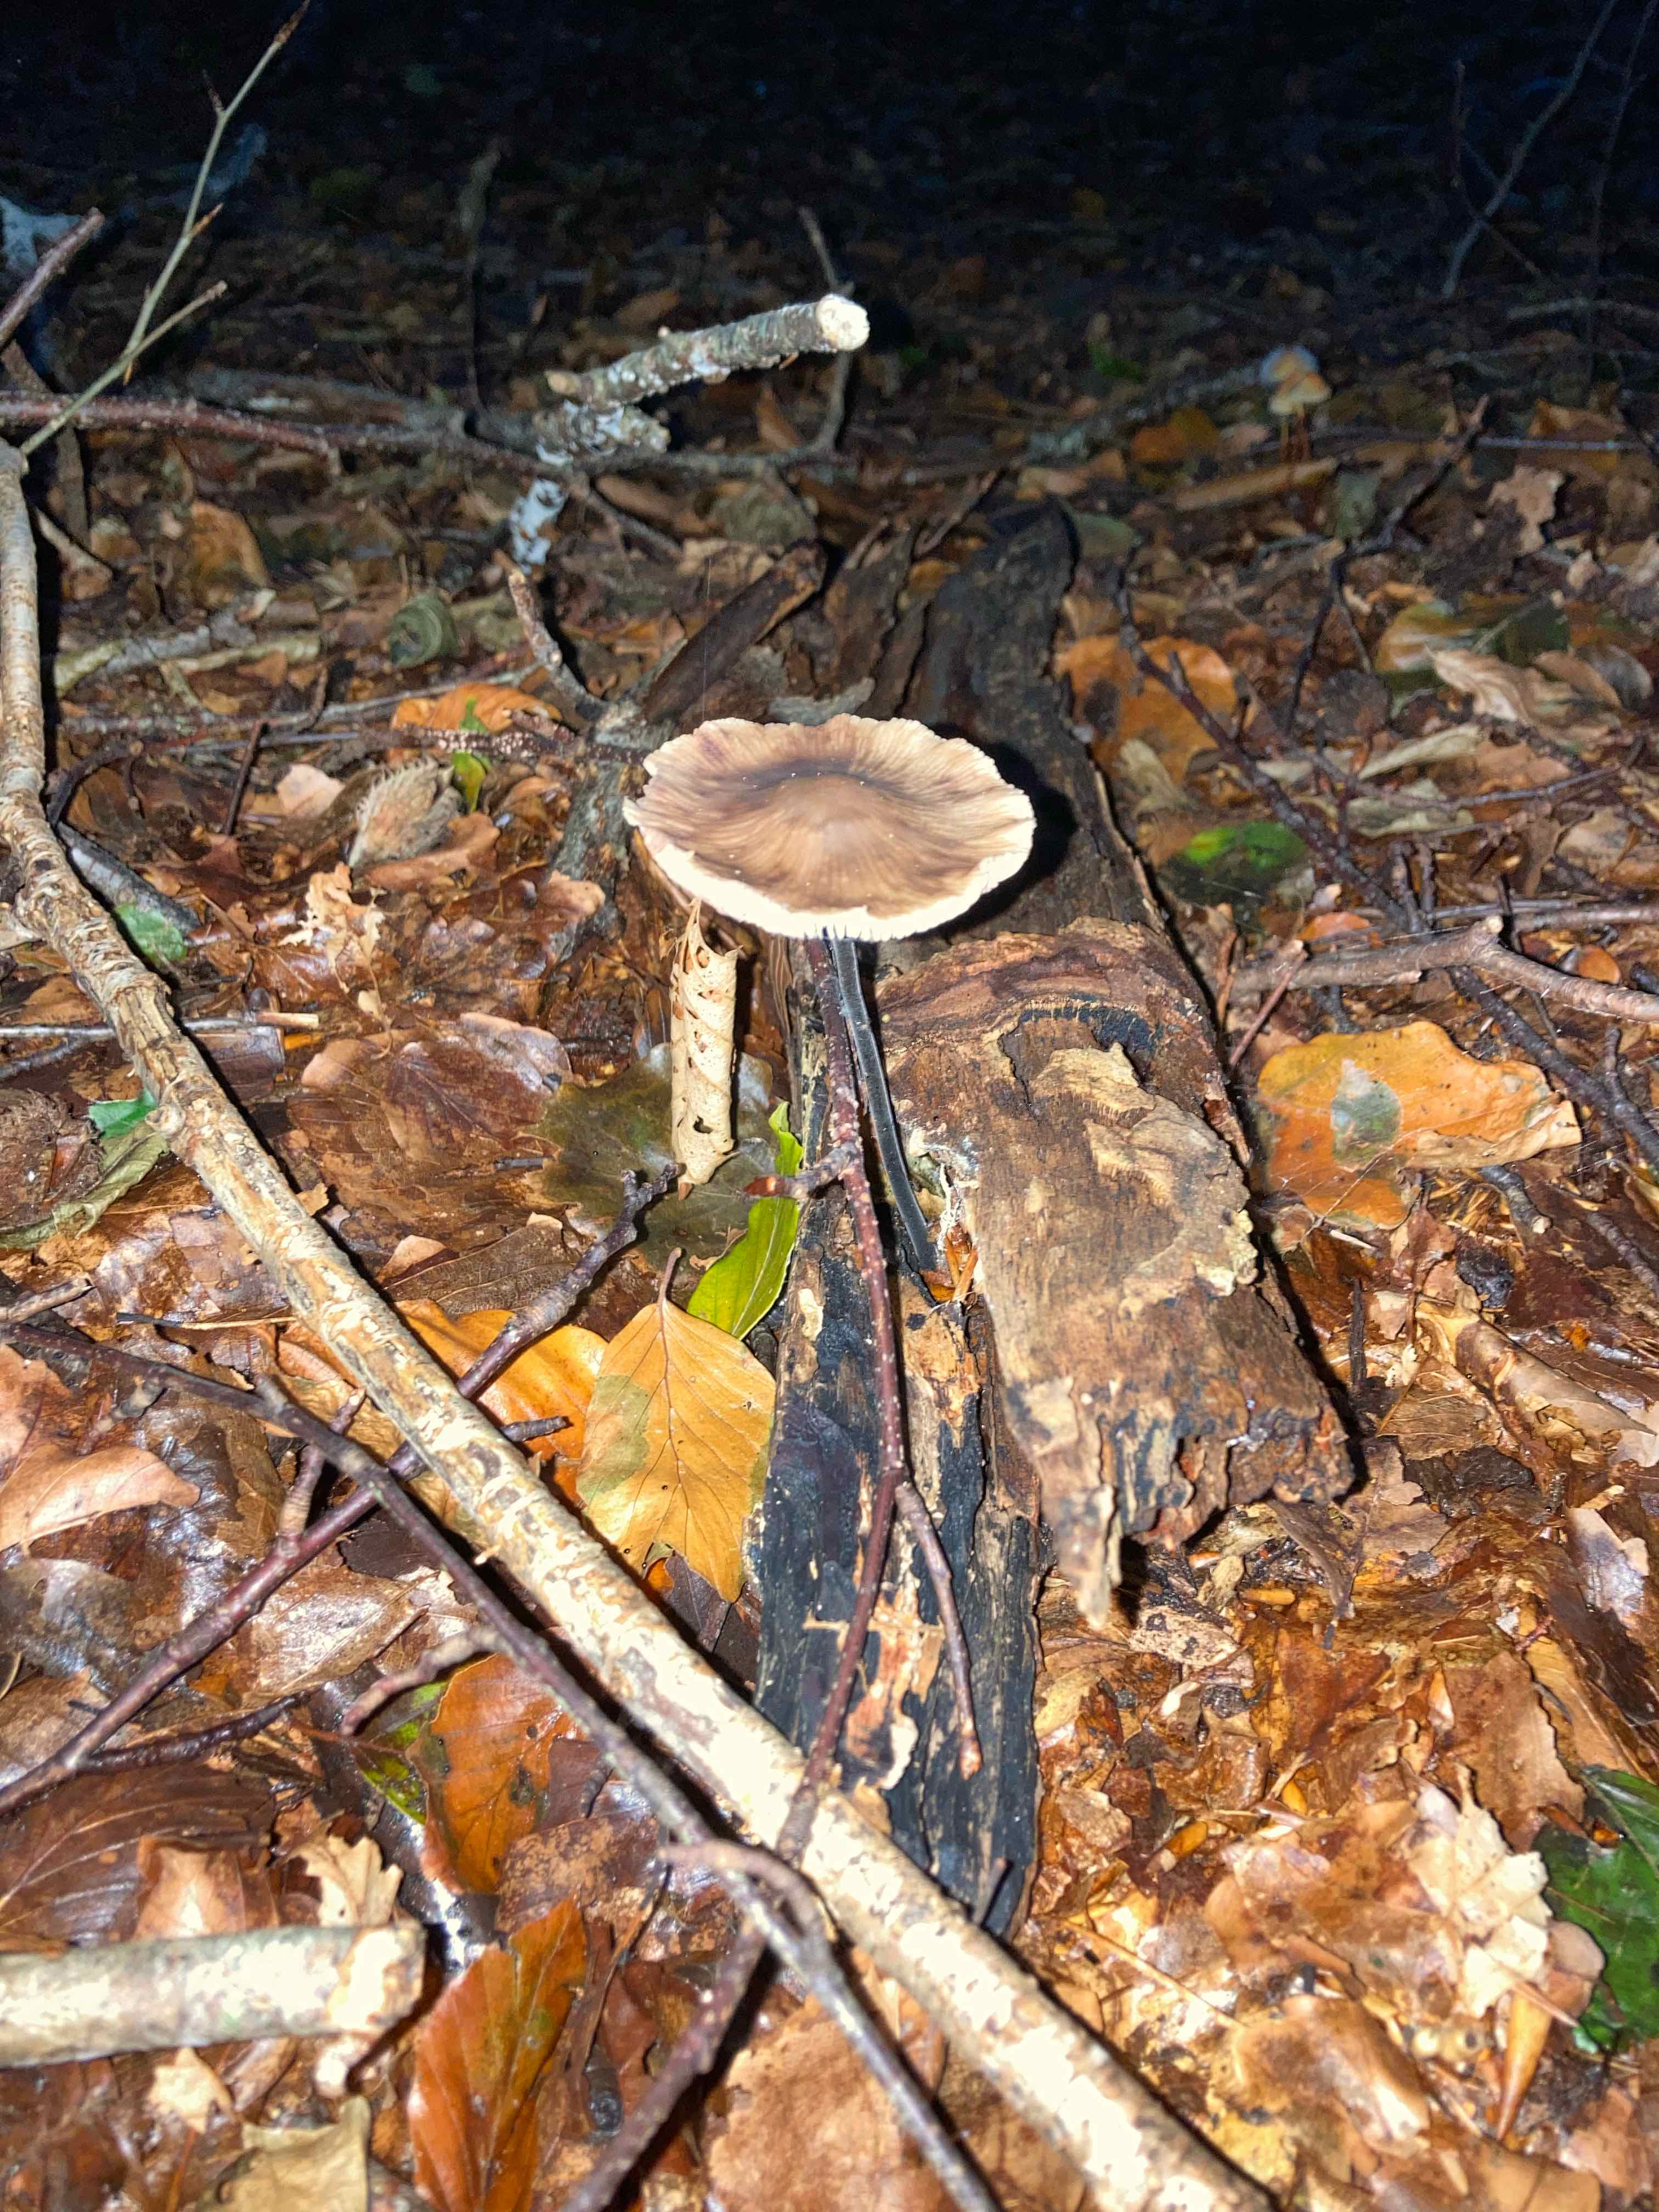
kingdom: Fungi
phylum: Basidiomycota
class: Agaricomycetes
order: Agaricales
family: Omphalotaceae
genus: Mycetinis
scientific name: Mycetinis alliaceus
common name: stor løghat
